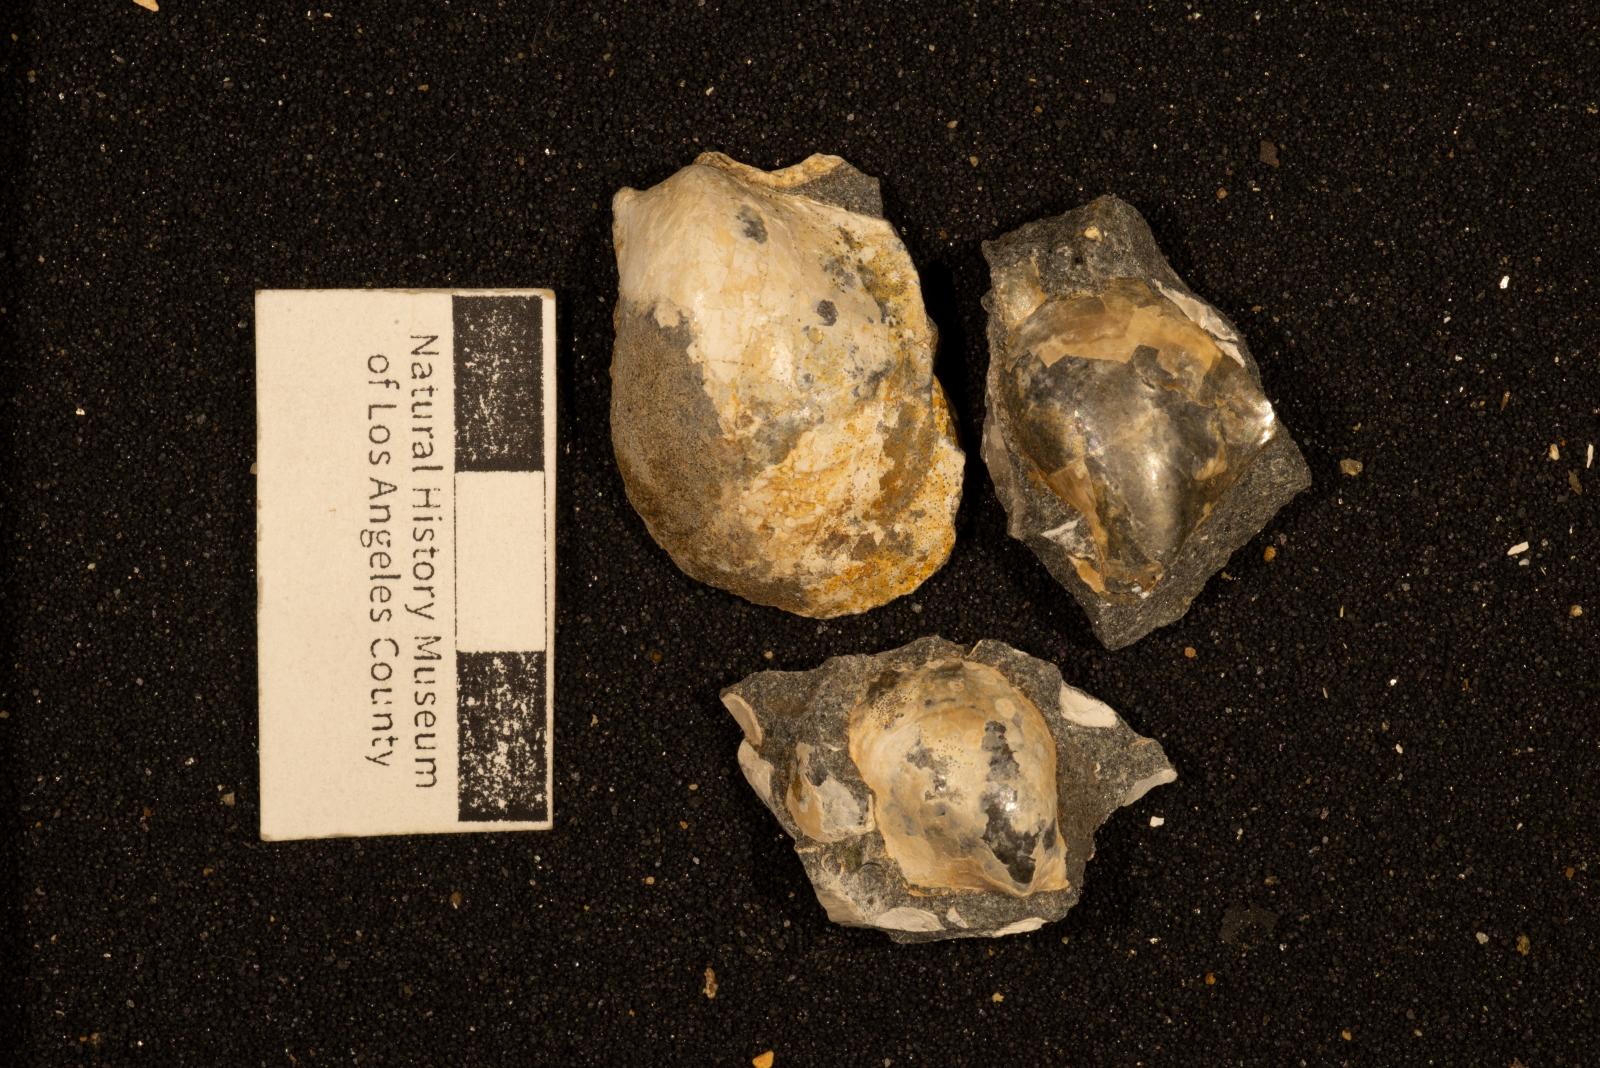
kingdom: Animalia
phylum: Mollusca
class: Bivalvia
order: Ostreida
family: Pteriidae
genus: Pteria
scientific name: Pteria pellucida
